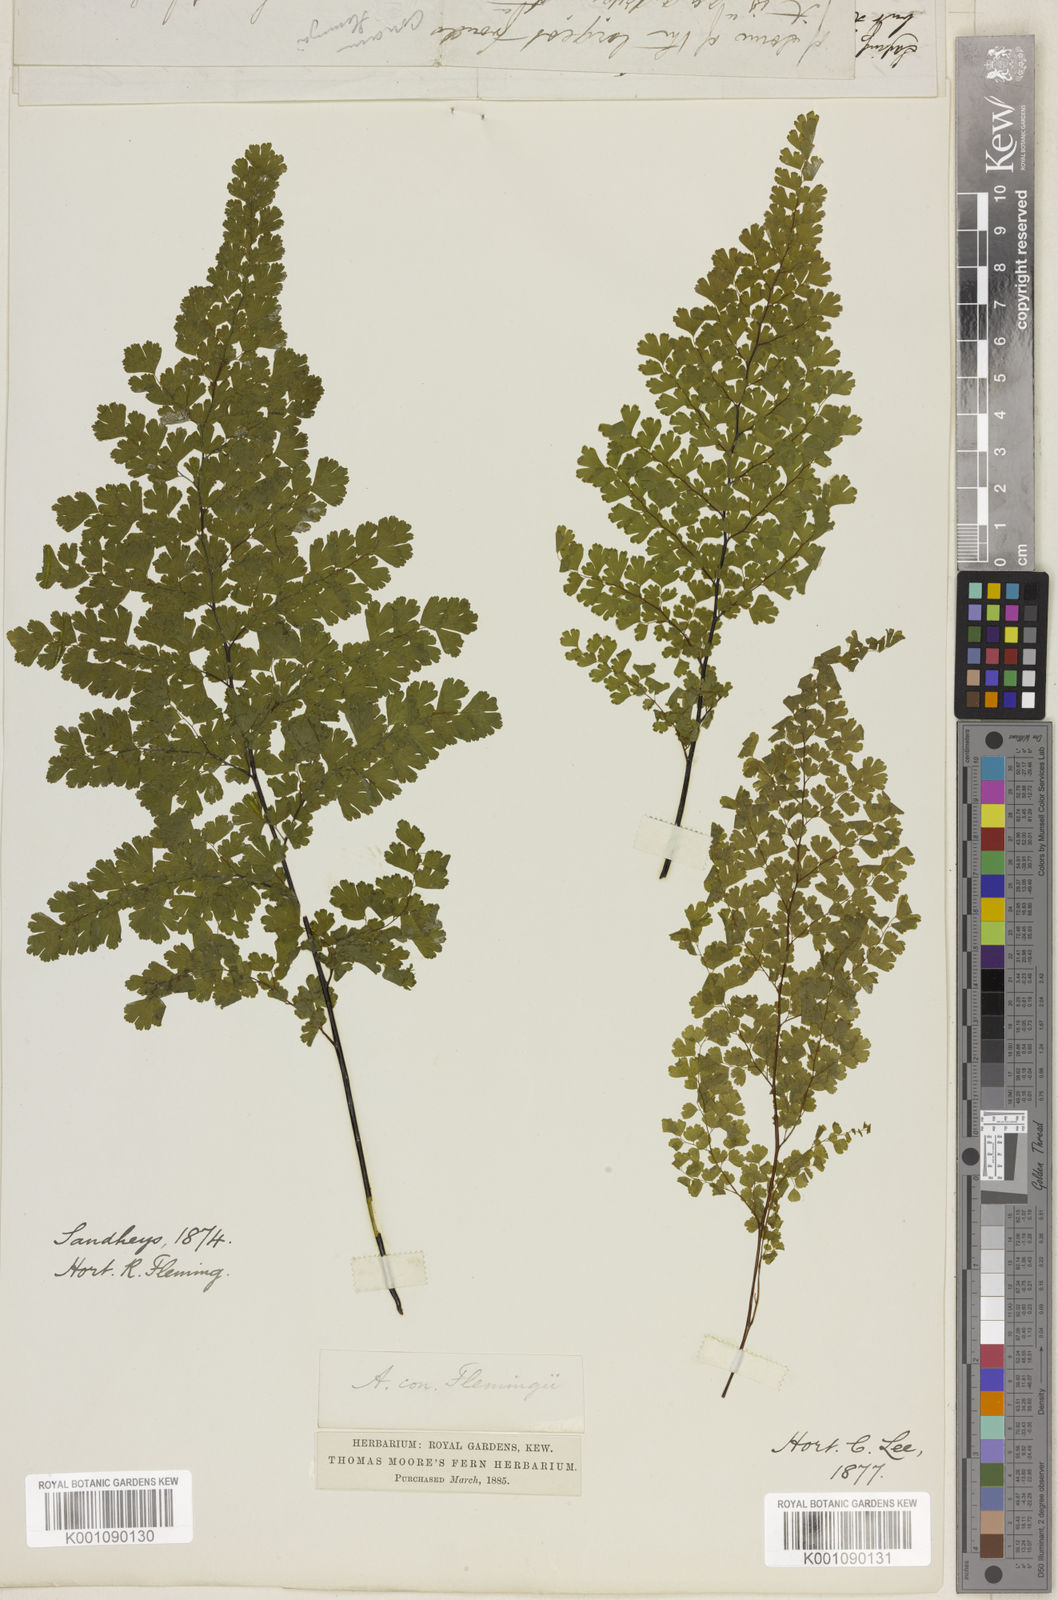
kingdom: Plantae
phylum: Tracheophyta
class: Polypodiopsida
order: Polypodiales
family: Pteridaceae
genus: Adiantum
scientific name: Adiantum concinnum
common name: Brittle maidenhair fern
